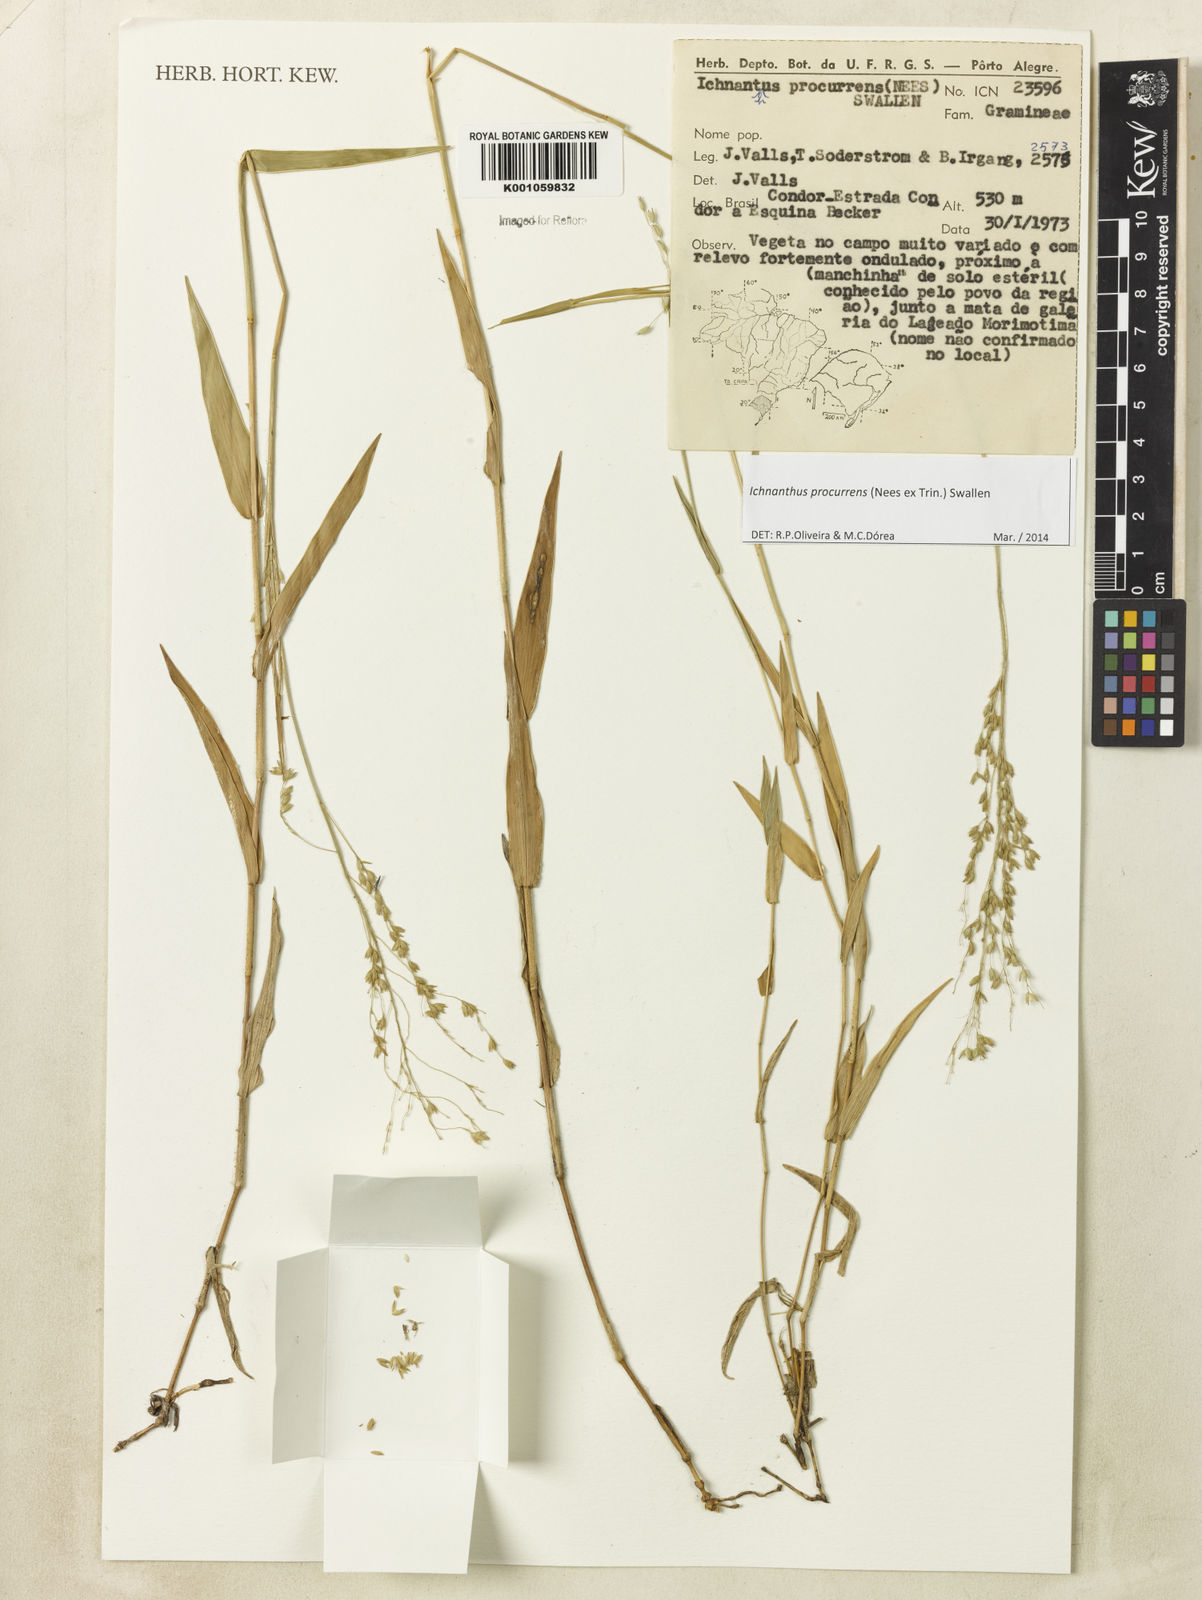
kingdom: Plantae
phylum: Tracheophyta
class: Liliopsida
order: Poales
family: Poaceae
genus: Oedochloa
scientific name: Oedochloa procurrens
